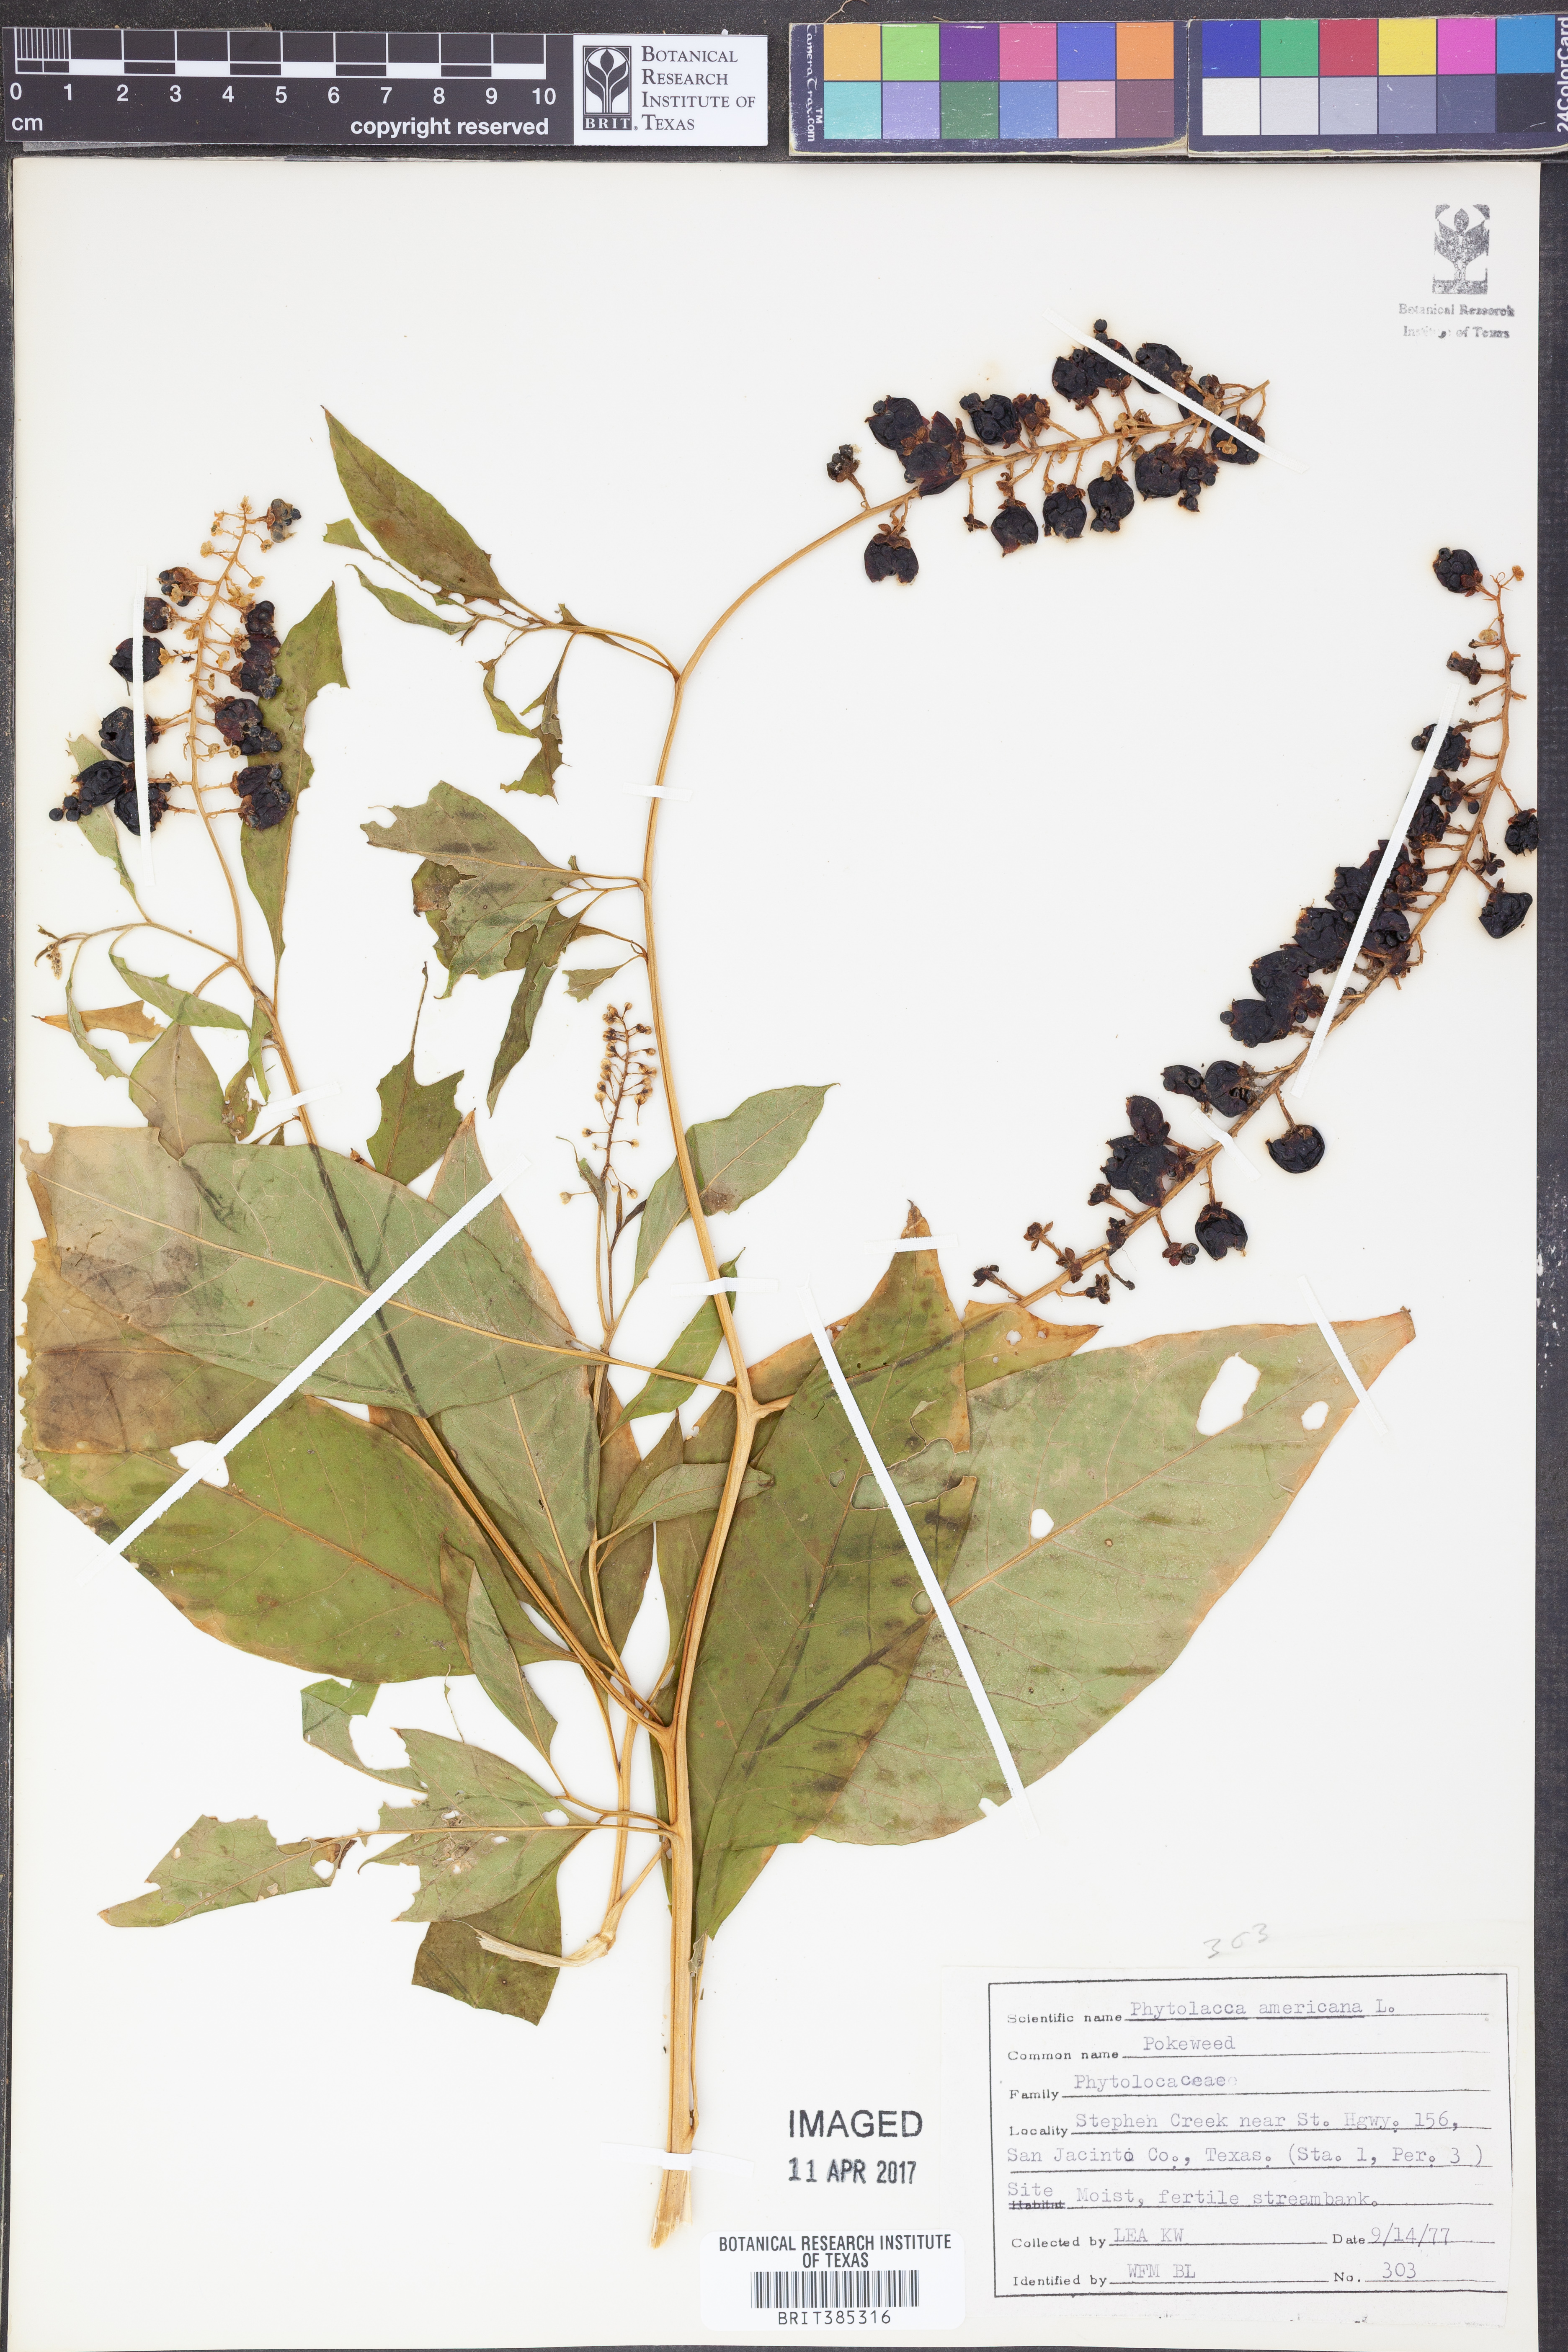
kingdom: Plantae
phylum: Tracheophyta
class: Magnoliopsida
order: Caryophyllales
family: Phytolaccaceae
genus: Phytolacca
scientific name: Phytolacca americana
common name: American pokeweed
